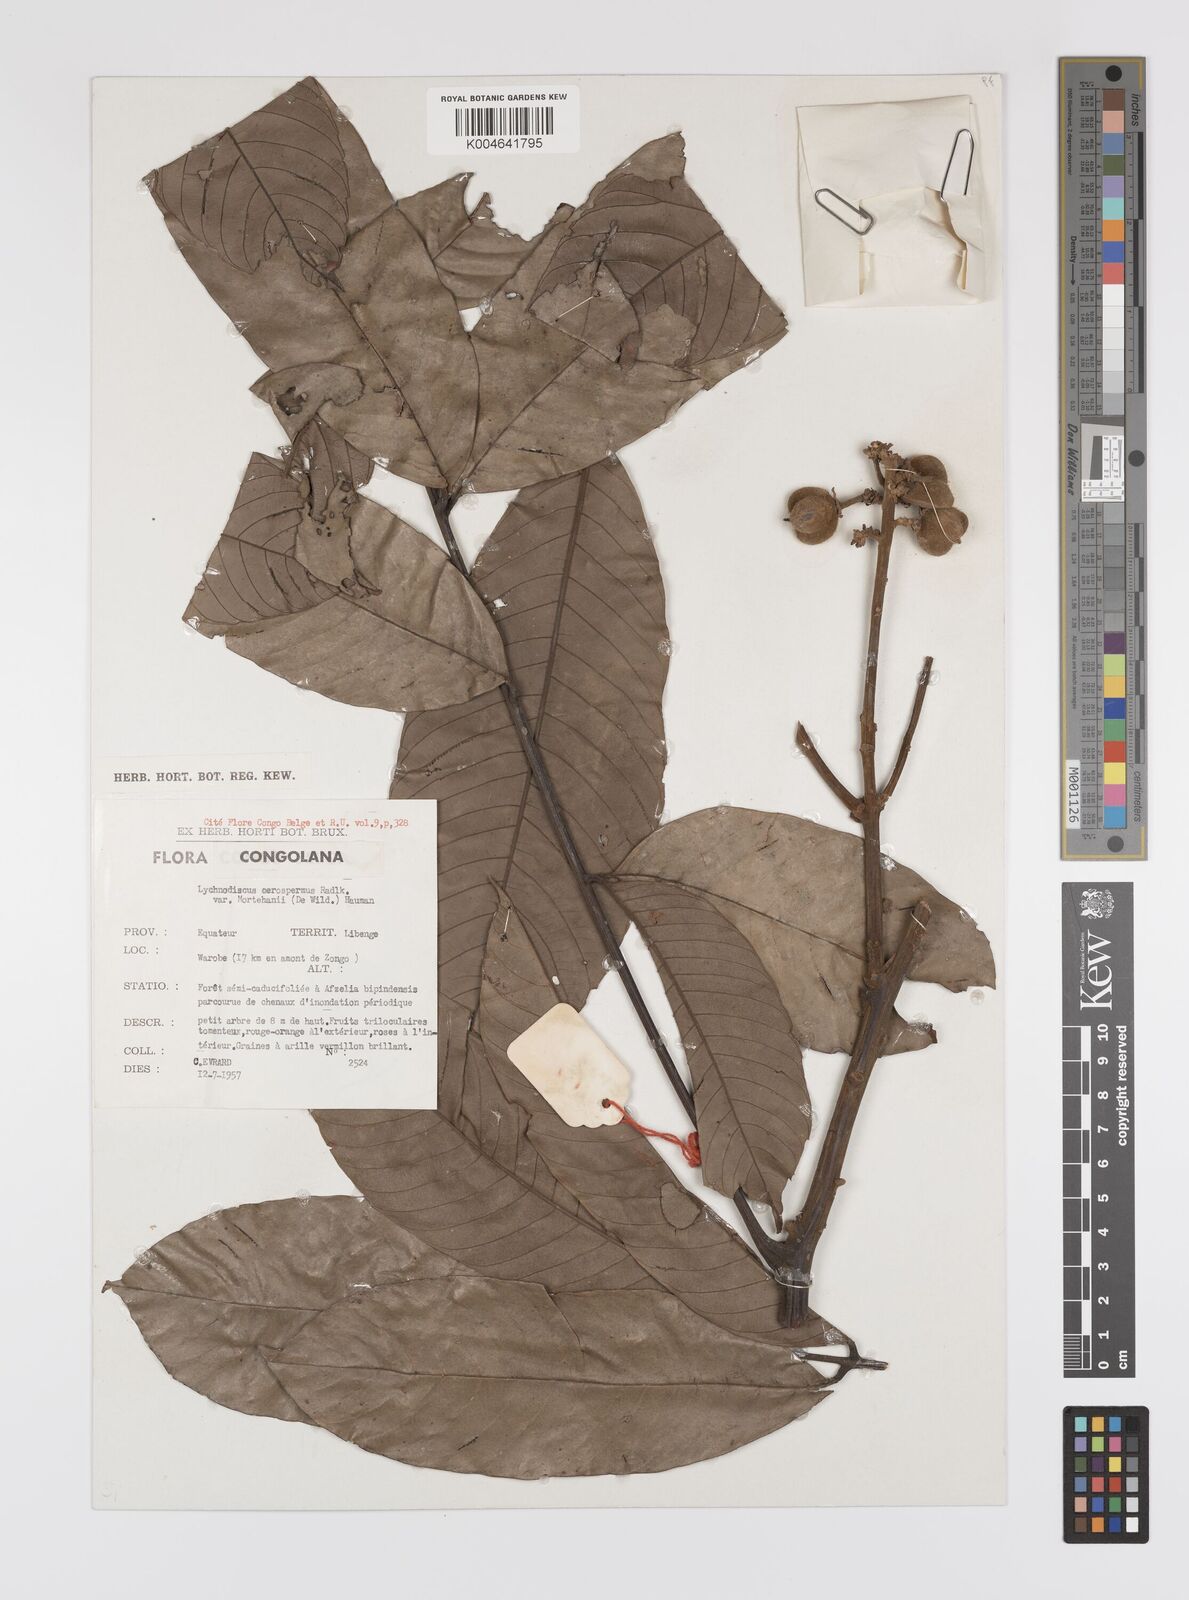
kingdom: Plantae
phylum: Tracheophyta
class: Magnoliopsida
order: Sapindales
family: Sapindaceae
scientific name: Sapindaceae
